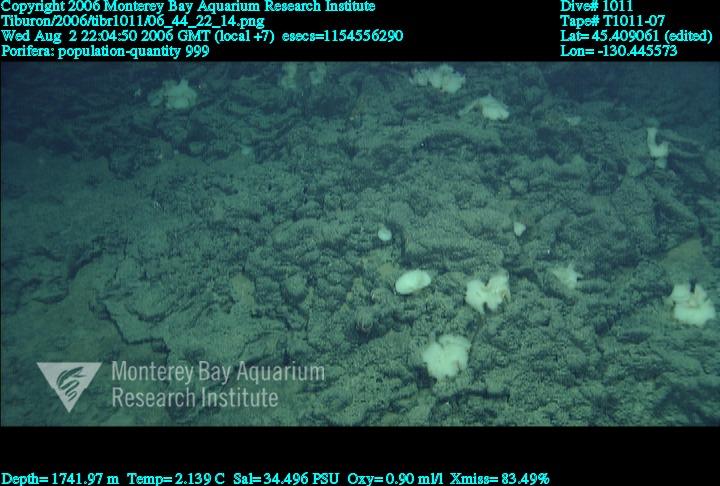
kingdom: Animalia
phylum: Porifera
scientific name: Porifera
